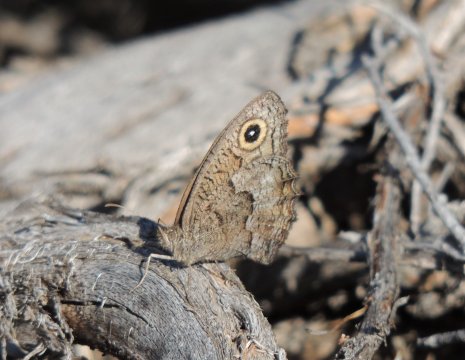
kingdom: Animalia
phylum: Arthropoda
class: Insecta
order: Lepidoptera
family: Nymphalidae
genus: Cercyonis
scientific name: Cercyonis sthenele
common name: Great Basin Wood-Nymph
